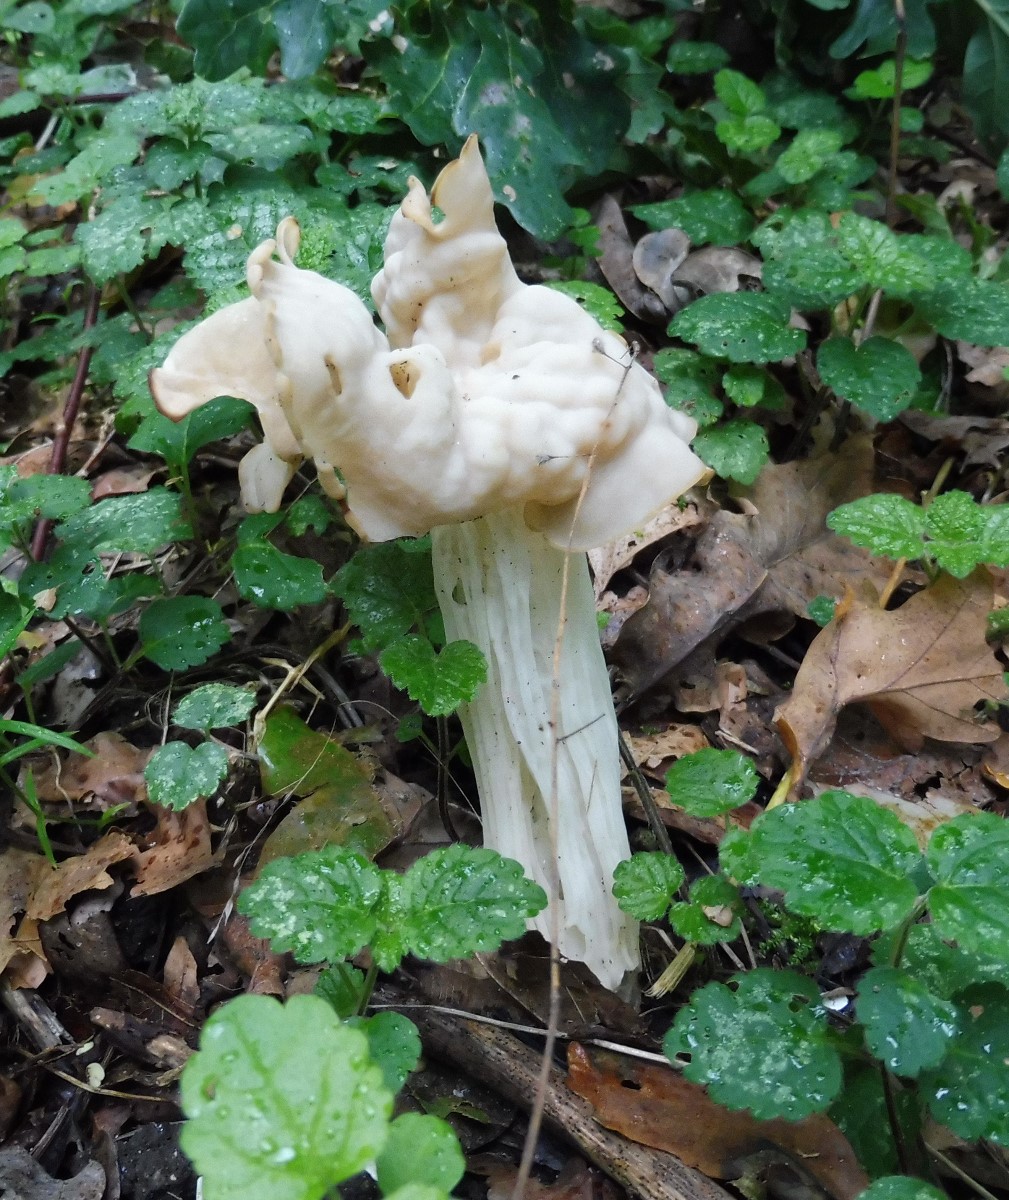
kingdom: Fungi
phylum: Ascomycota
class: Pezizomycetes
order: Pezizales
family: Helvellaceae
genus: Helvella
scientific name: Helvella crispa
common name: kruset foldhat
